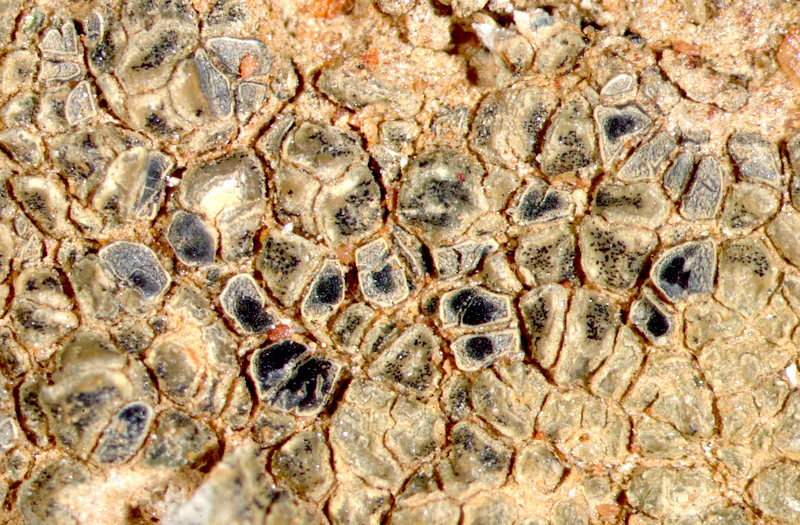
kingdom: Fungi
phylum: Ascomycota
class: Lecanoromycetes
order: Lecanorales
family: Lecanoraceae
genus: Lecidella
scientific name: Lecidella
